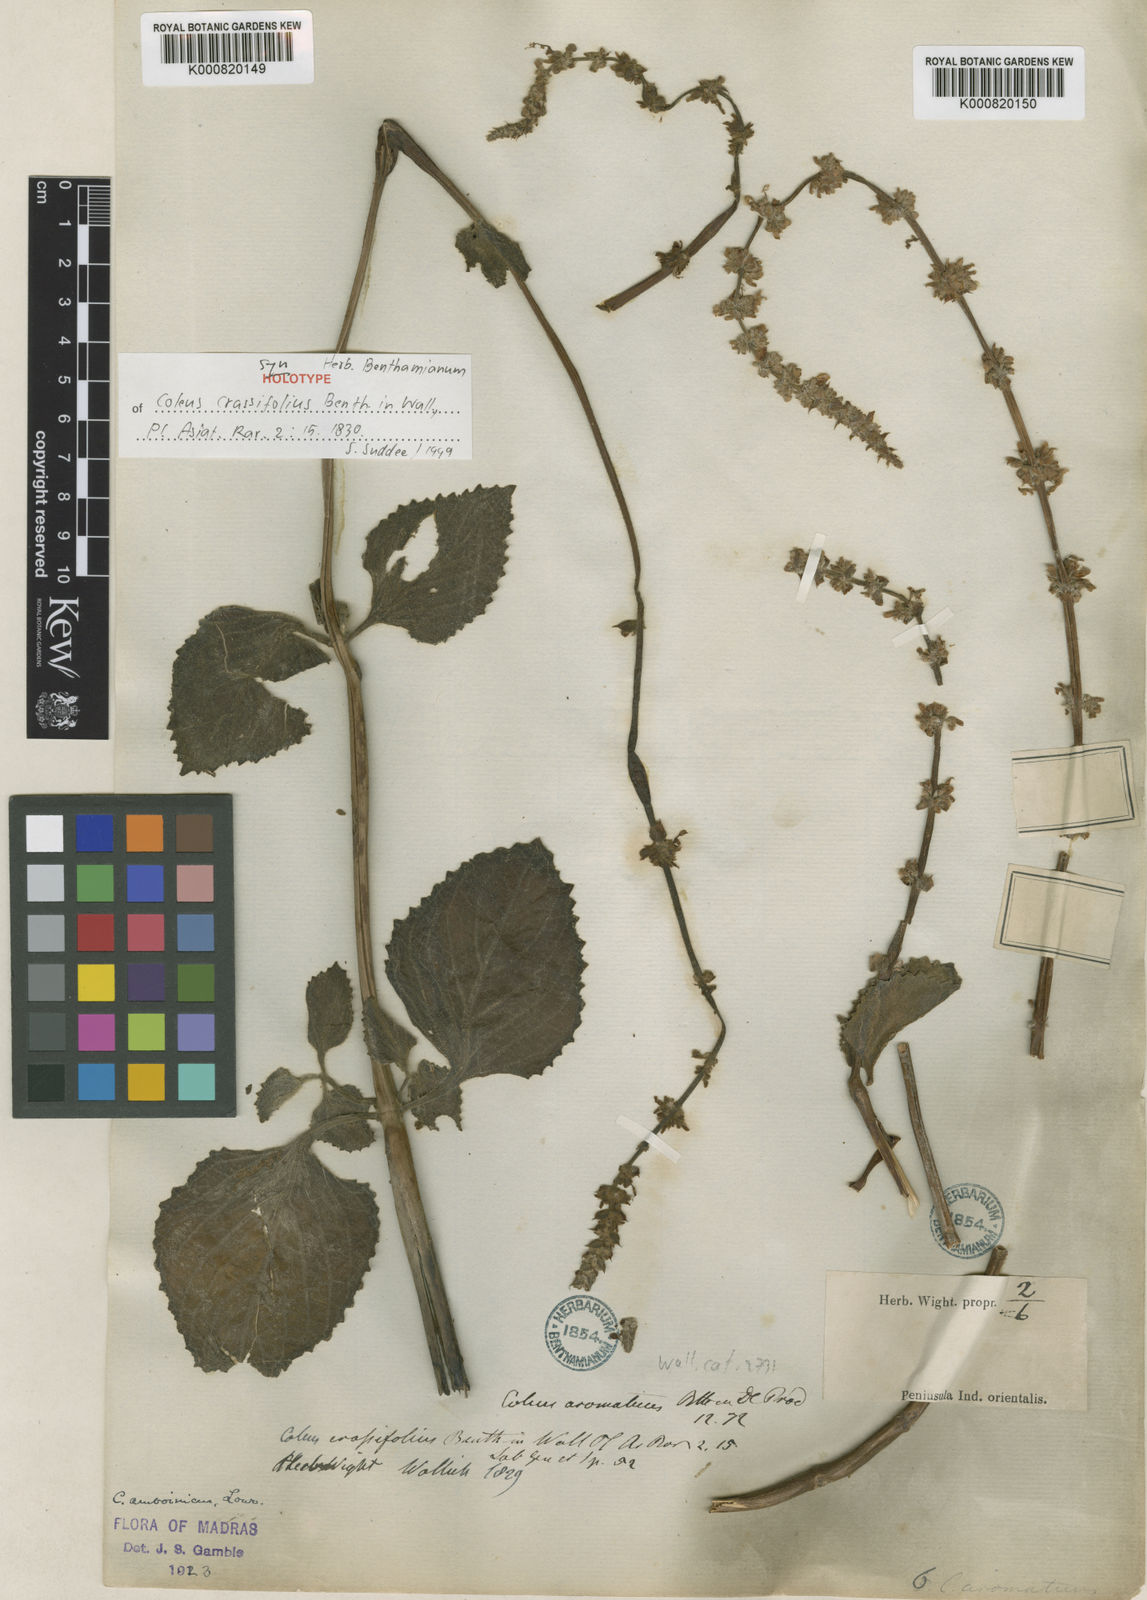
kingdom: Plantae
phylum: Tracheophyta
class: Magnoliopsida
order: Lamiales
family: Lamiaceae
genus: Coleus
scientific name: Coleus scutellarioides
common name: Coleus
